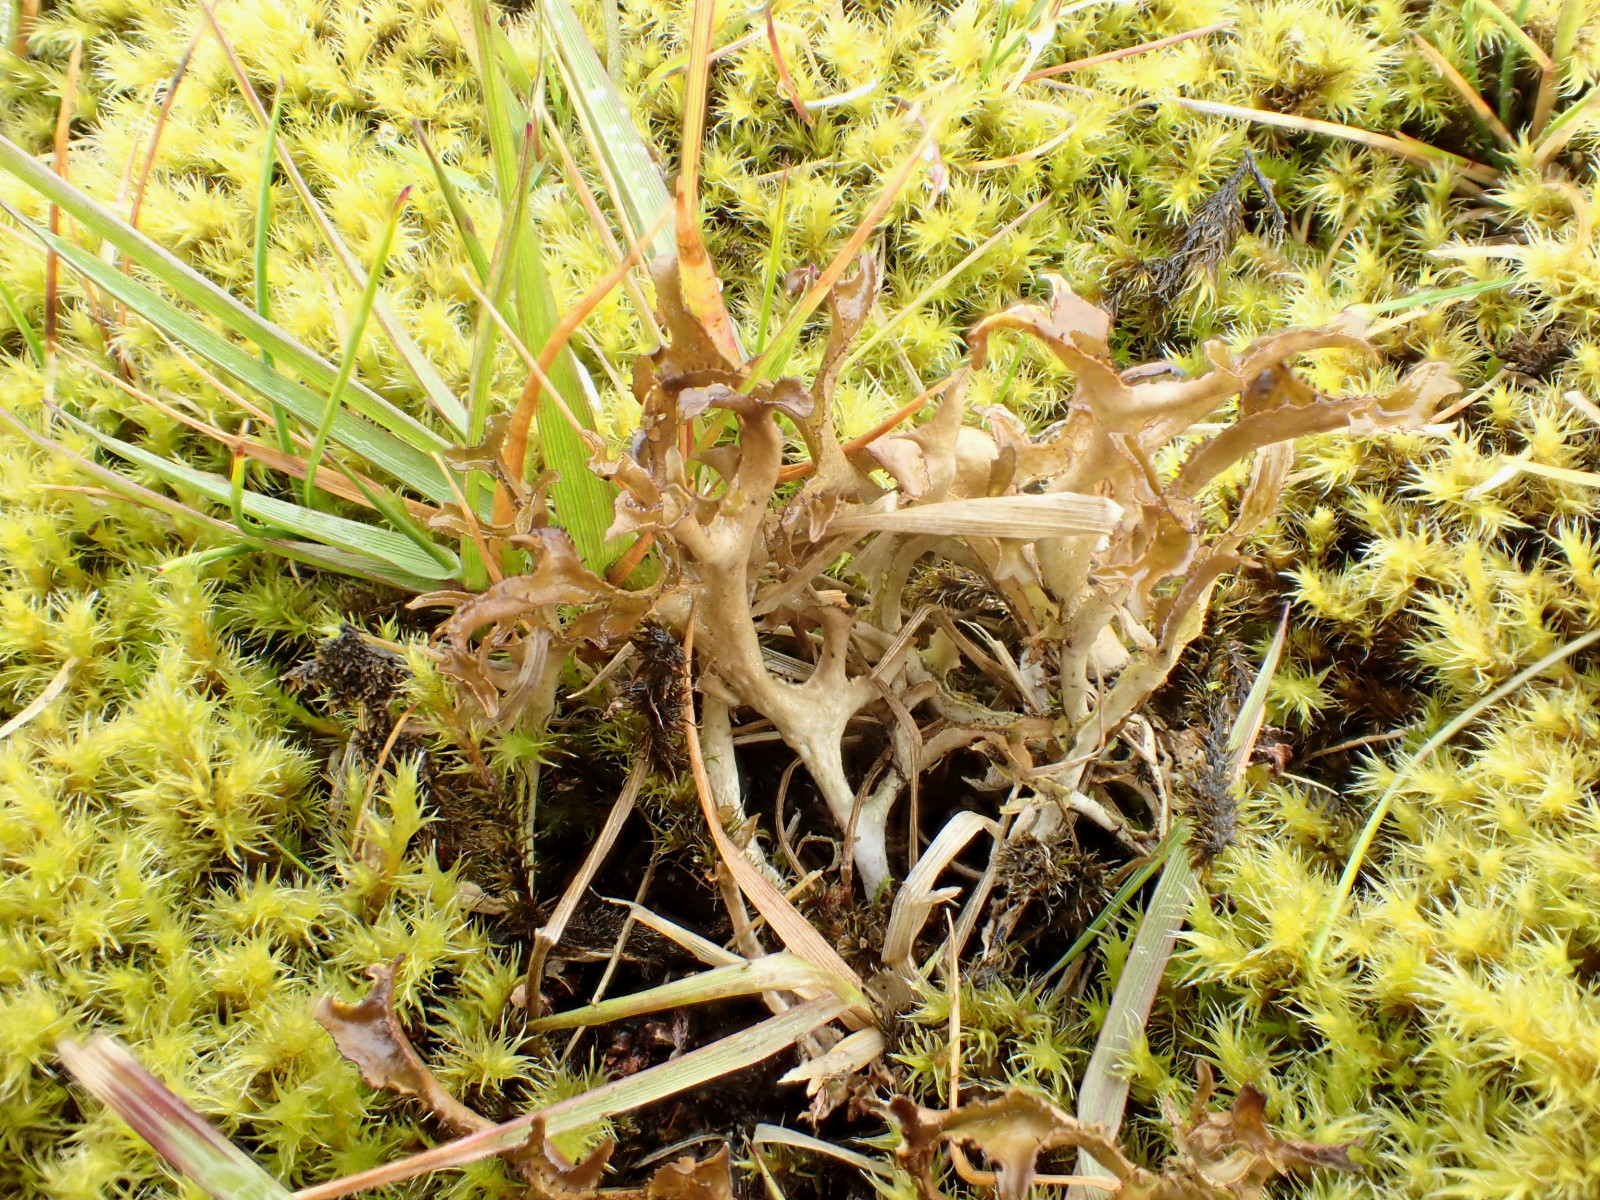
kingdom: Fungi
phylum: Ascomycota
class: Lecanoromycetes
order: Lecanorales
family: Parmeliaceae
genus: Cetraria
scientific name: Cetraria islandica
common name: islandsk kruslav
